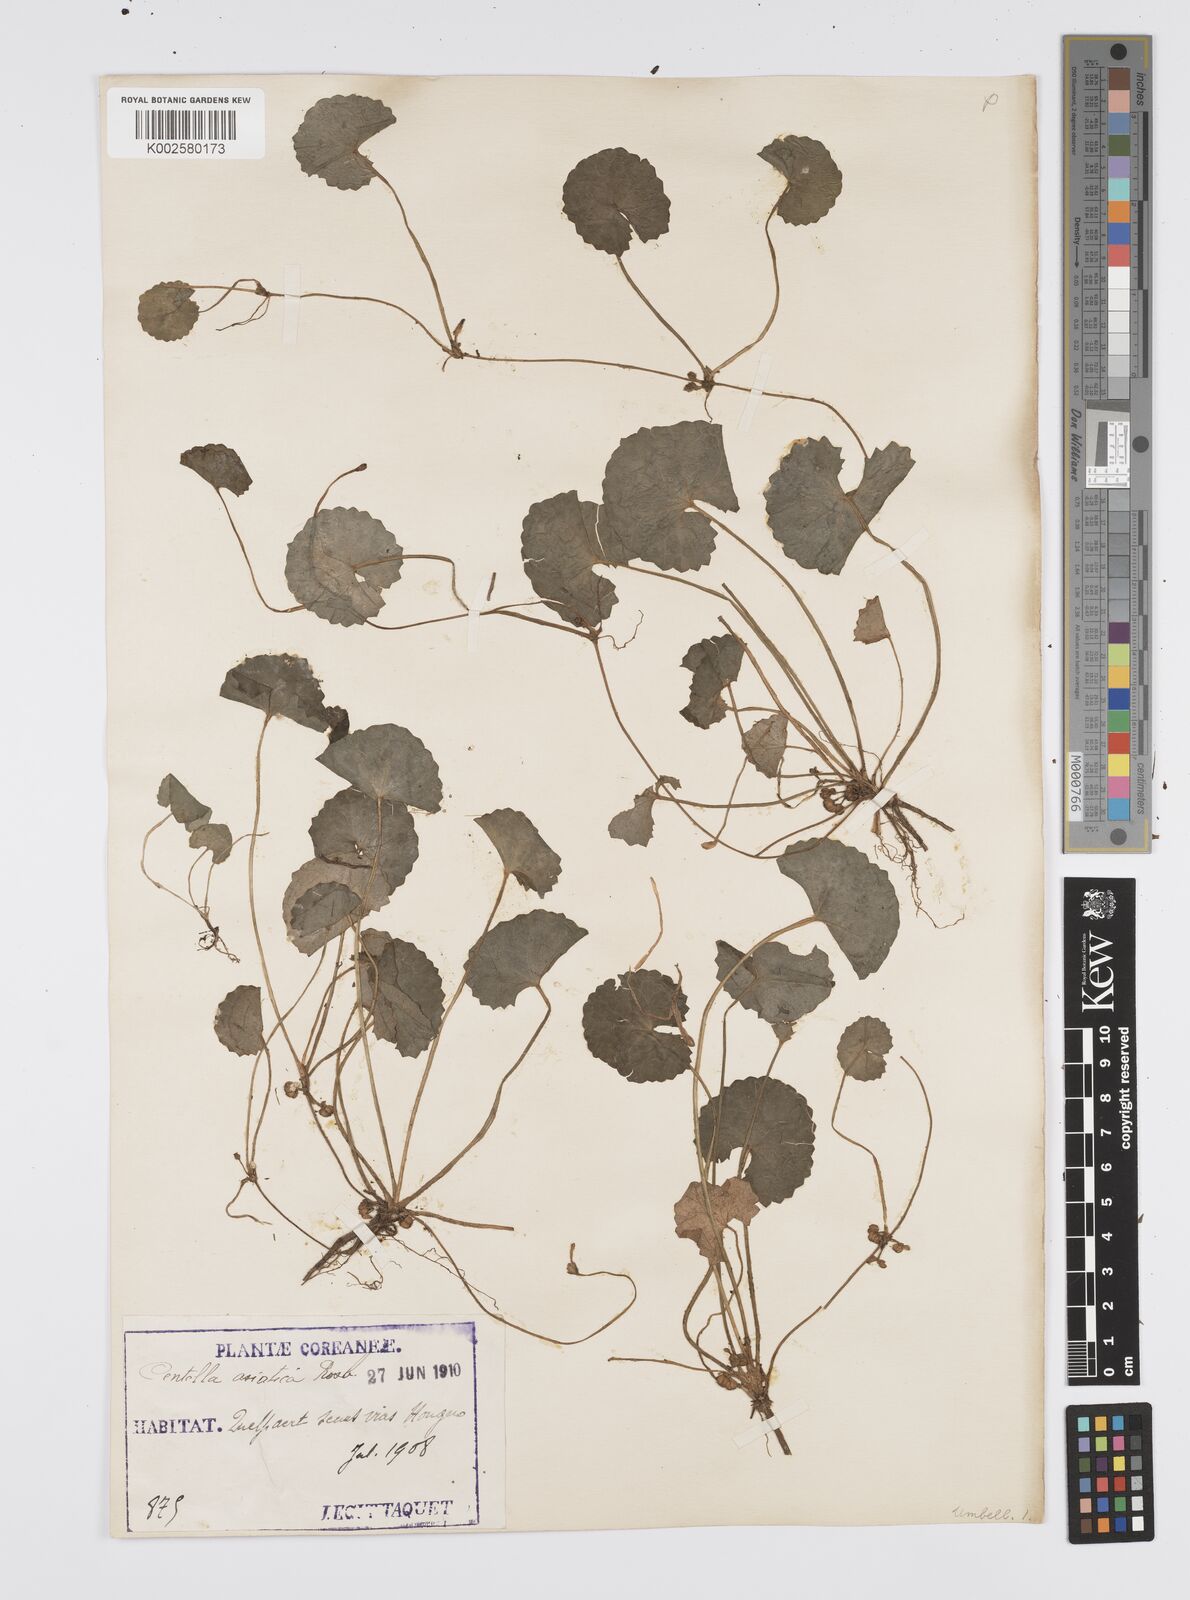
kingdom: Plantae
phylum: Tracheophyta
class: Magnoliopsida
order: Apiales
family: Apiaceae
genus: Centella
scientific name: Centella asiatica
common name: Spadeleaf
